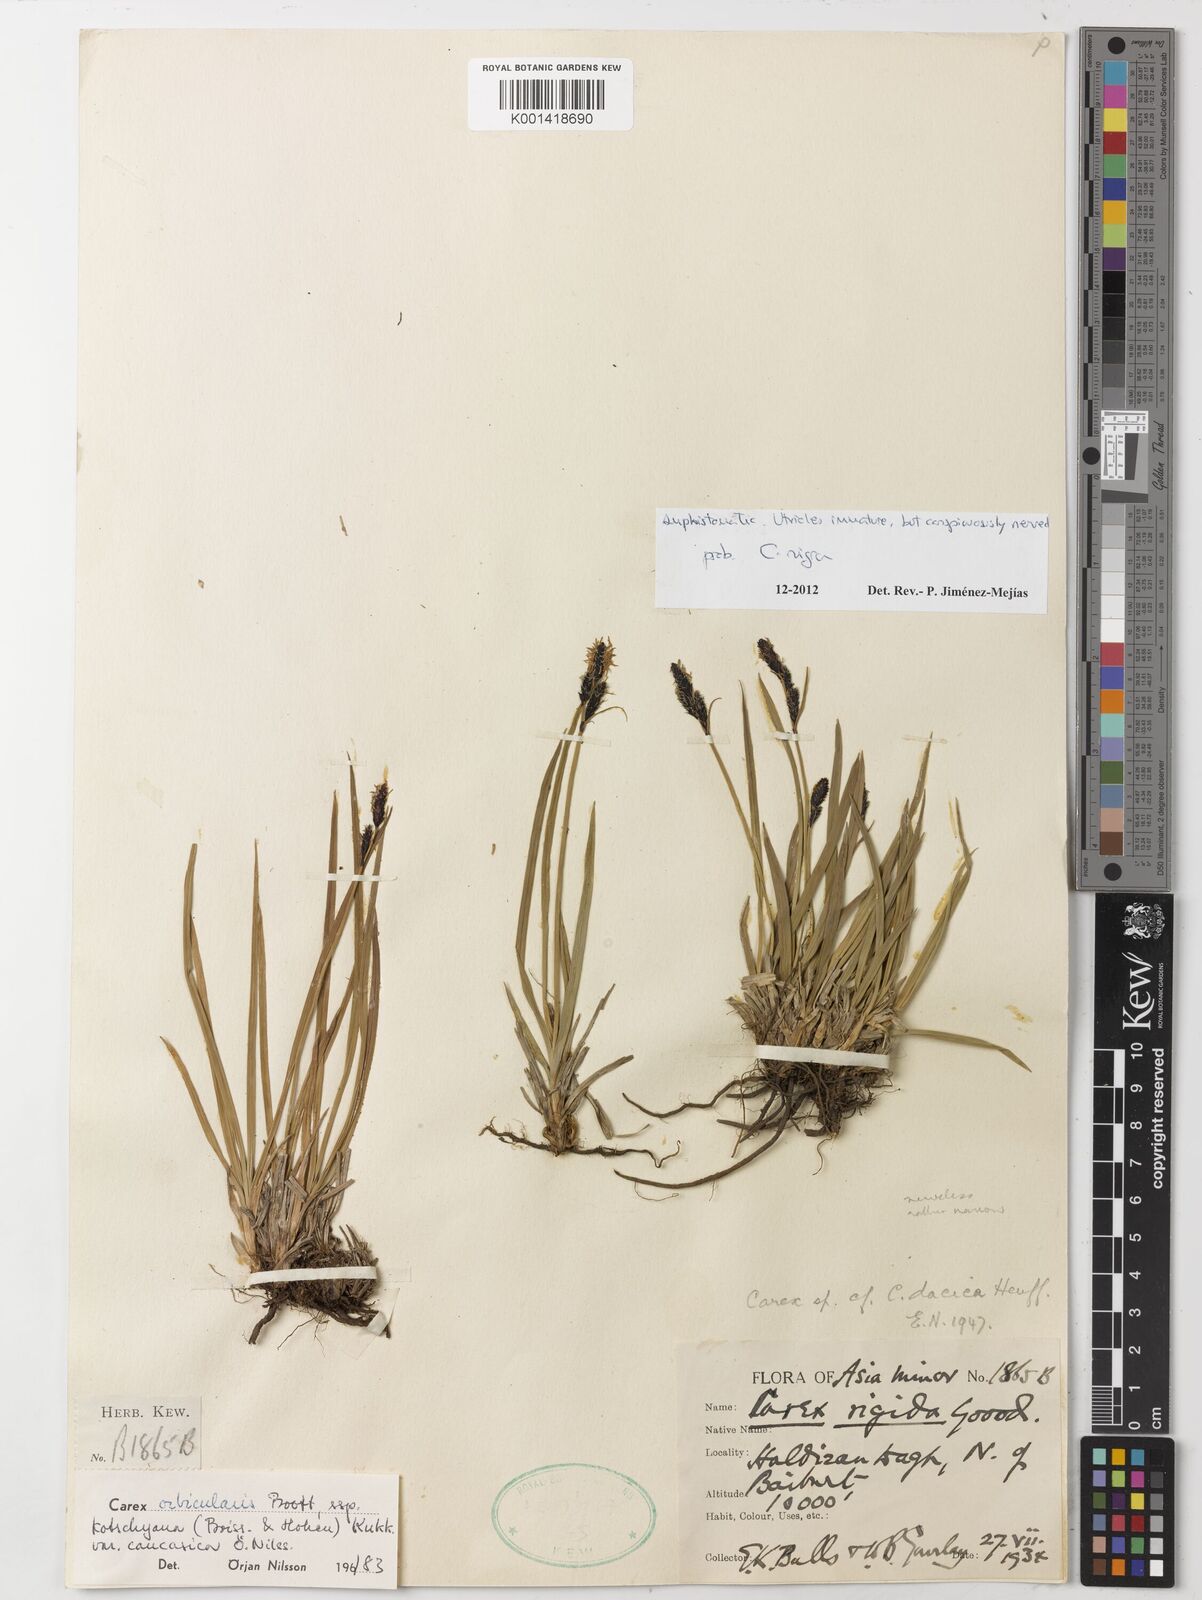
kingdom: Plantae
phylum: Tracheophyta
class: Liliopsida
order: Poales
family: Cyperaceae
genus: Carex
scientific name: Carex nigra
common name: Common sedge
